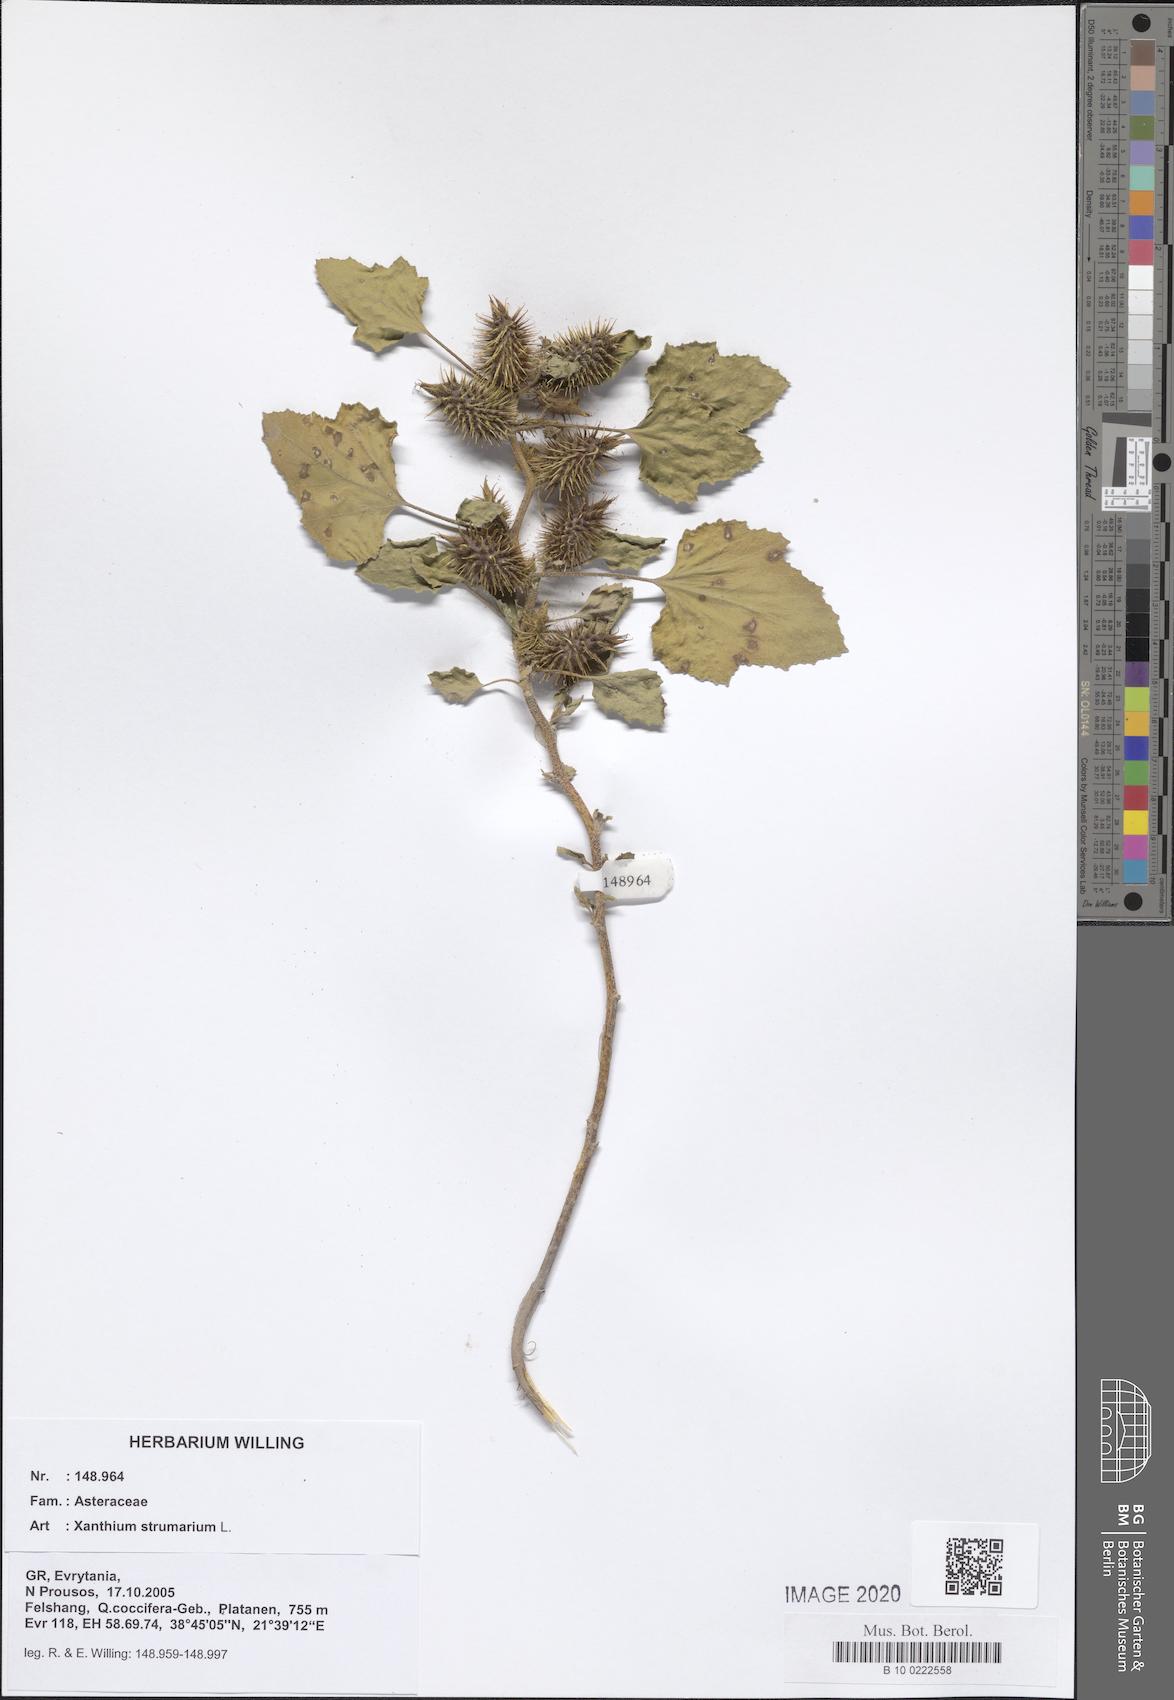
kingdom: Plantae
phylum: Tracheophyta
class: Magnoliopsida
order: Asterales
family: Asteraceae
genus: Xanthium
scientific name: Xanthium strumarium
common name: Rough cocklebur
